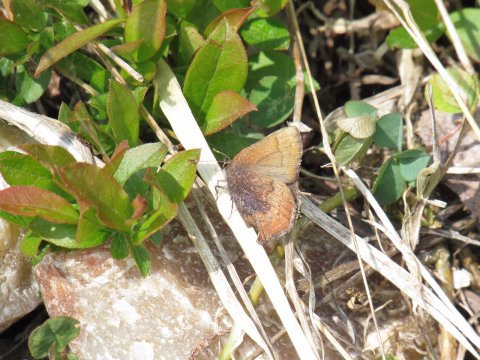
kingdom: Animalia
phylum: Arthropoda
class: Insecta
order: Lepidoptera
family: Lycaenidae
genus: Incisalia
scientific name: Incisalia irioides
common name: Brown Elfin
